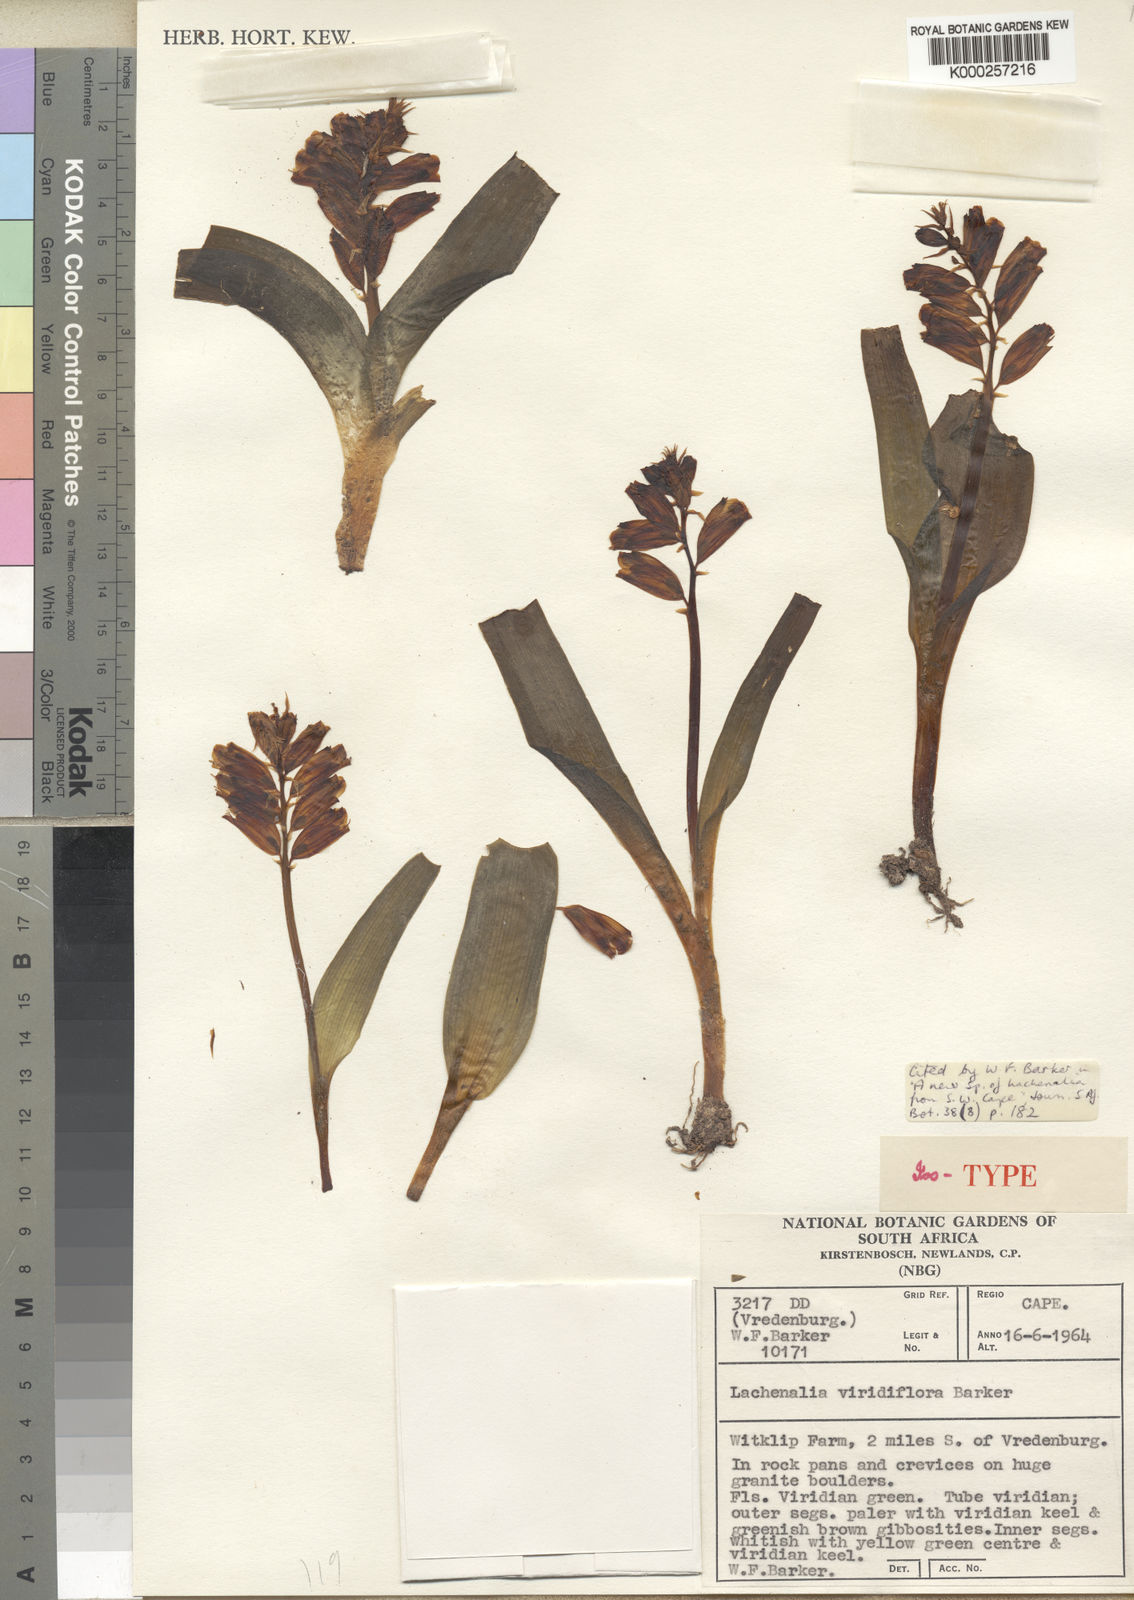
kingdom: Plantae
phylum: Tracheophyta
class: Liliopsida
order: Asparagales
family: Asparagaceae
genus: Lachenalia
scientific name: Lachenalia viridiflora
